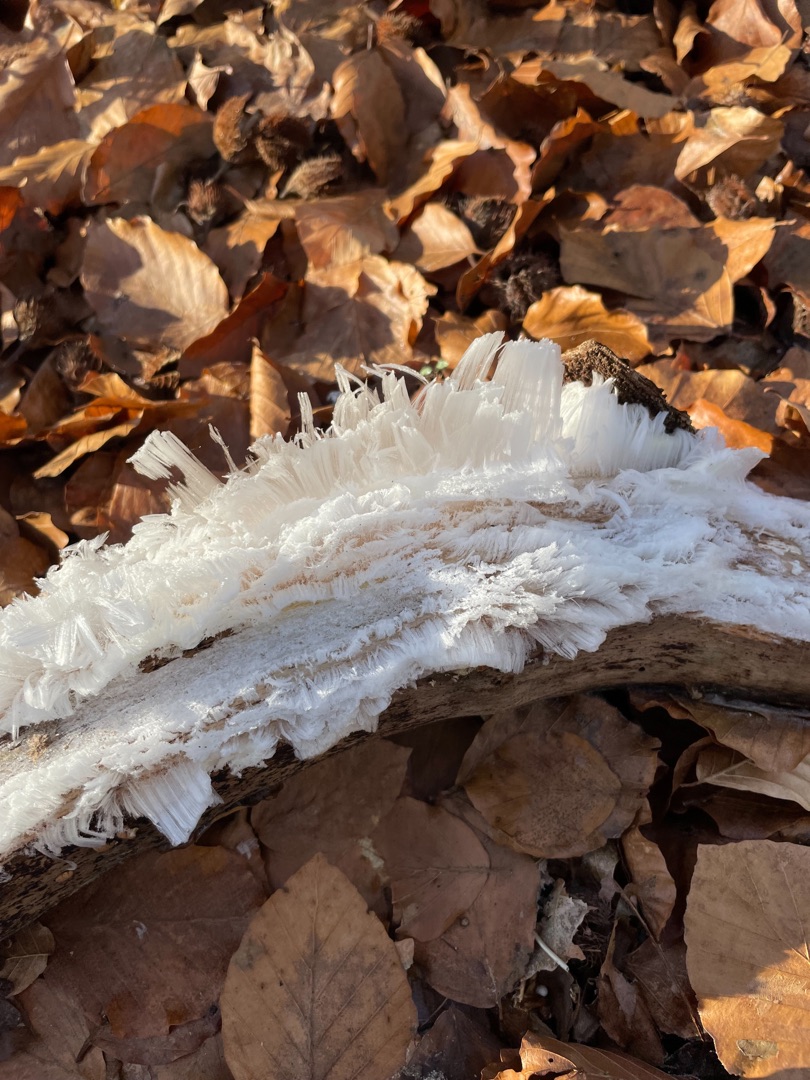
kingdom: Fungi
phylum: Basidiomycota
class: Tremellomycetes
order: Tremellales
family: Exidiaceae
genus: Exidiopsis
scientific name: Exidiopsis effusa
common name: Smuk bævrehinde
